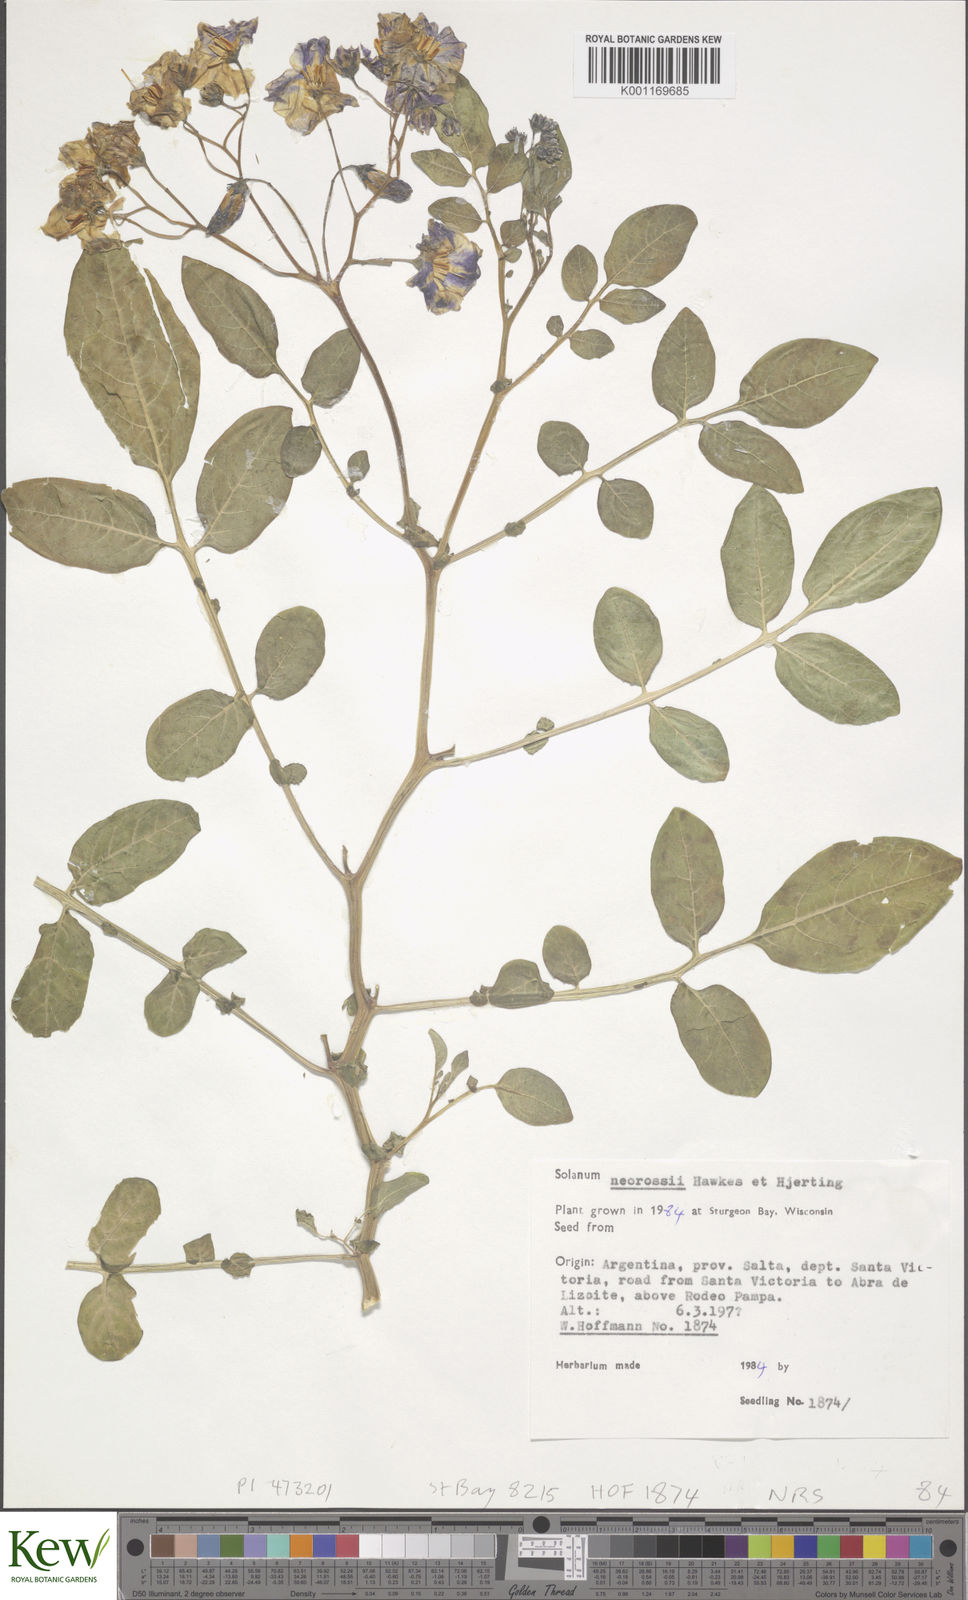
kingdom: Plantae
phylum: Tracheophyta
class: Magnoliopsida
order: Solanales
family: Solanaceae
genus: Solanum
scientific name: Solanum neorossii
